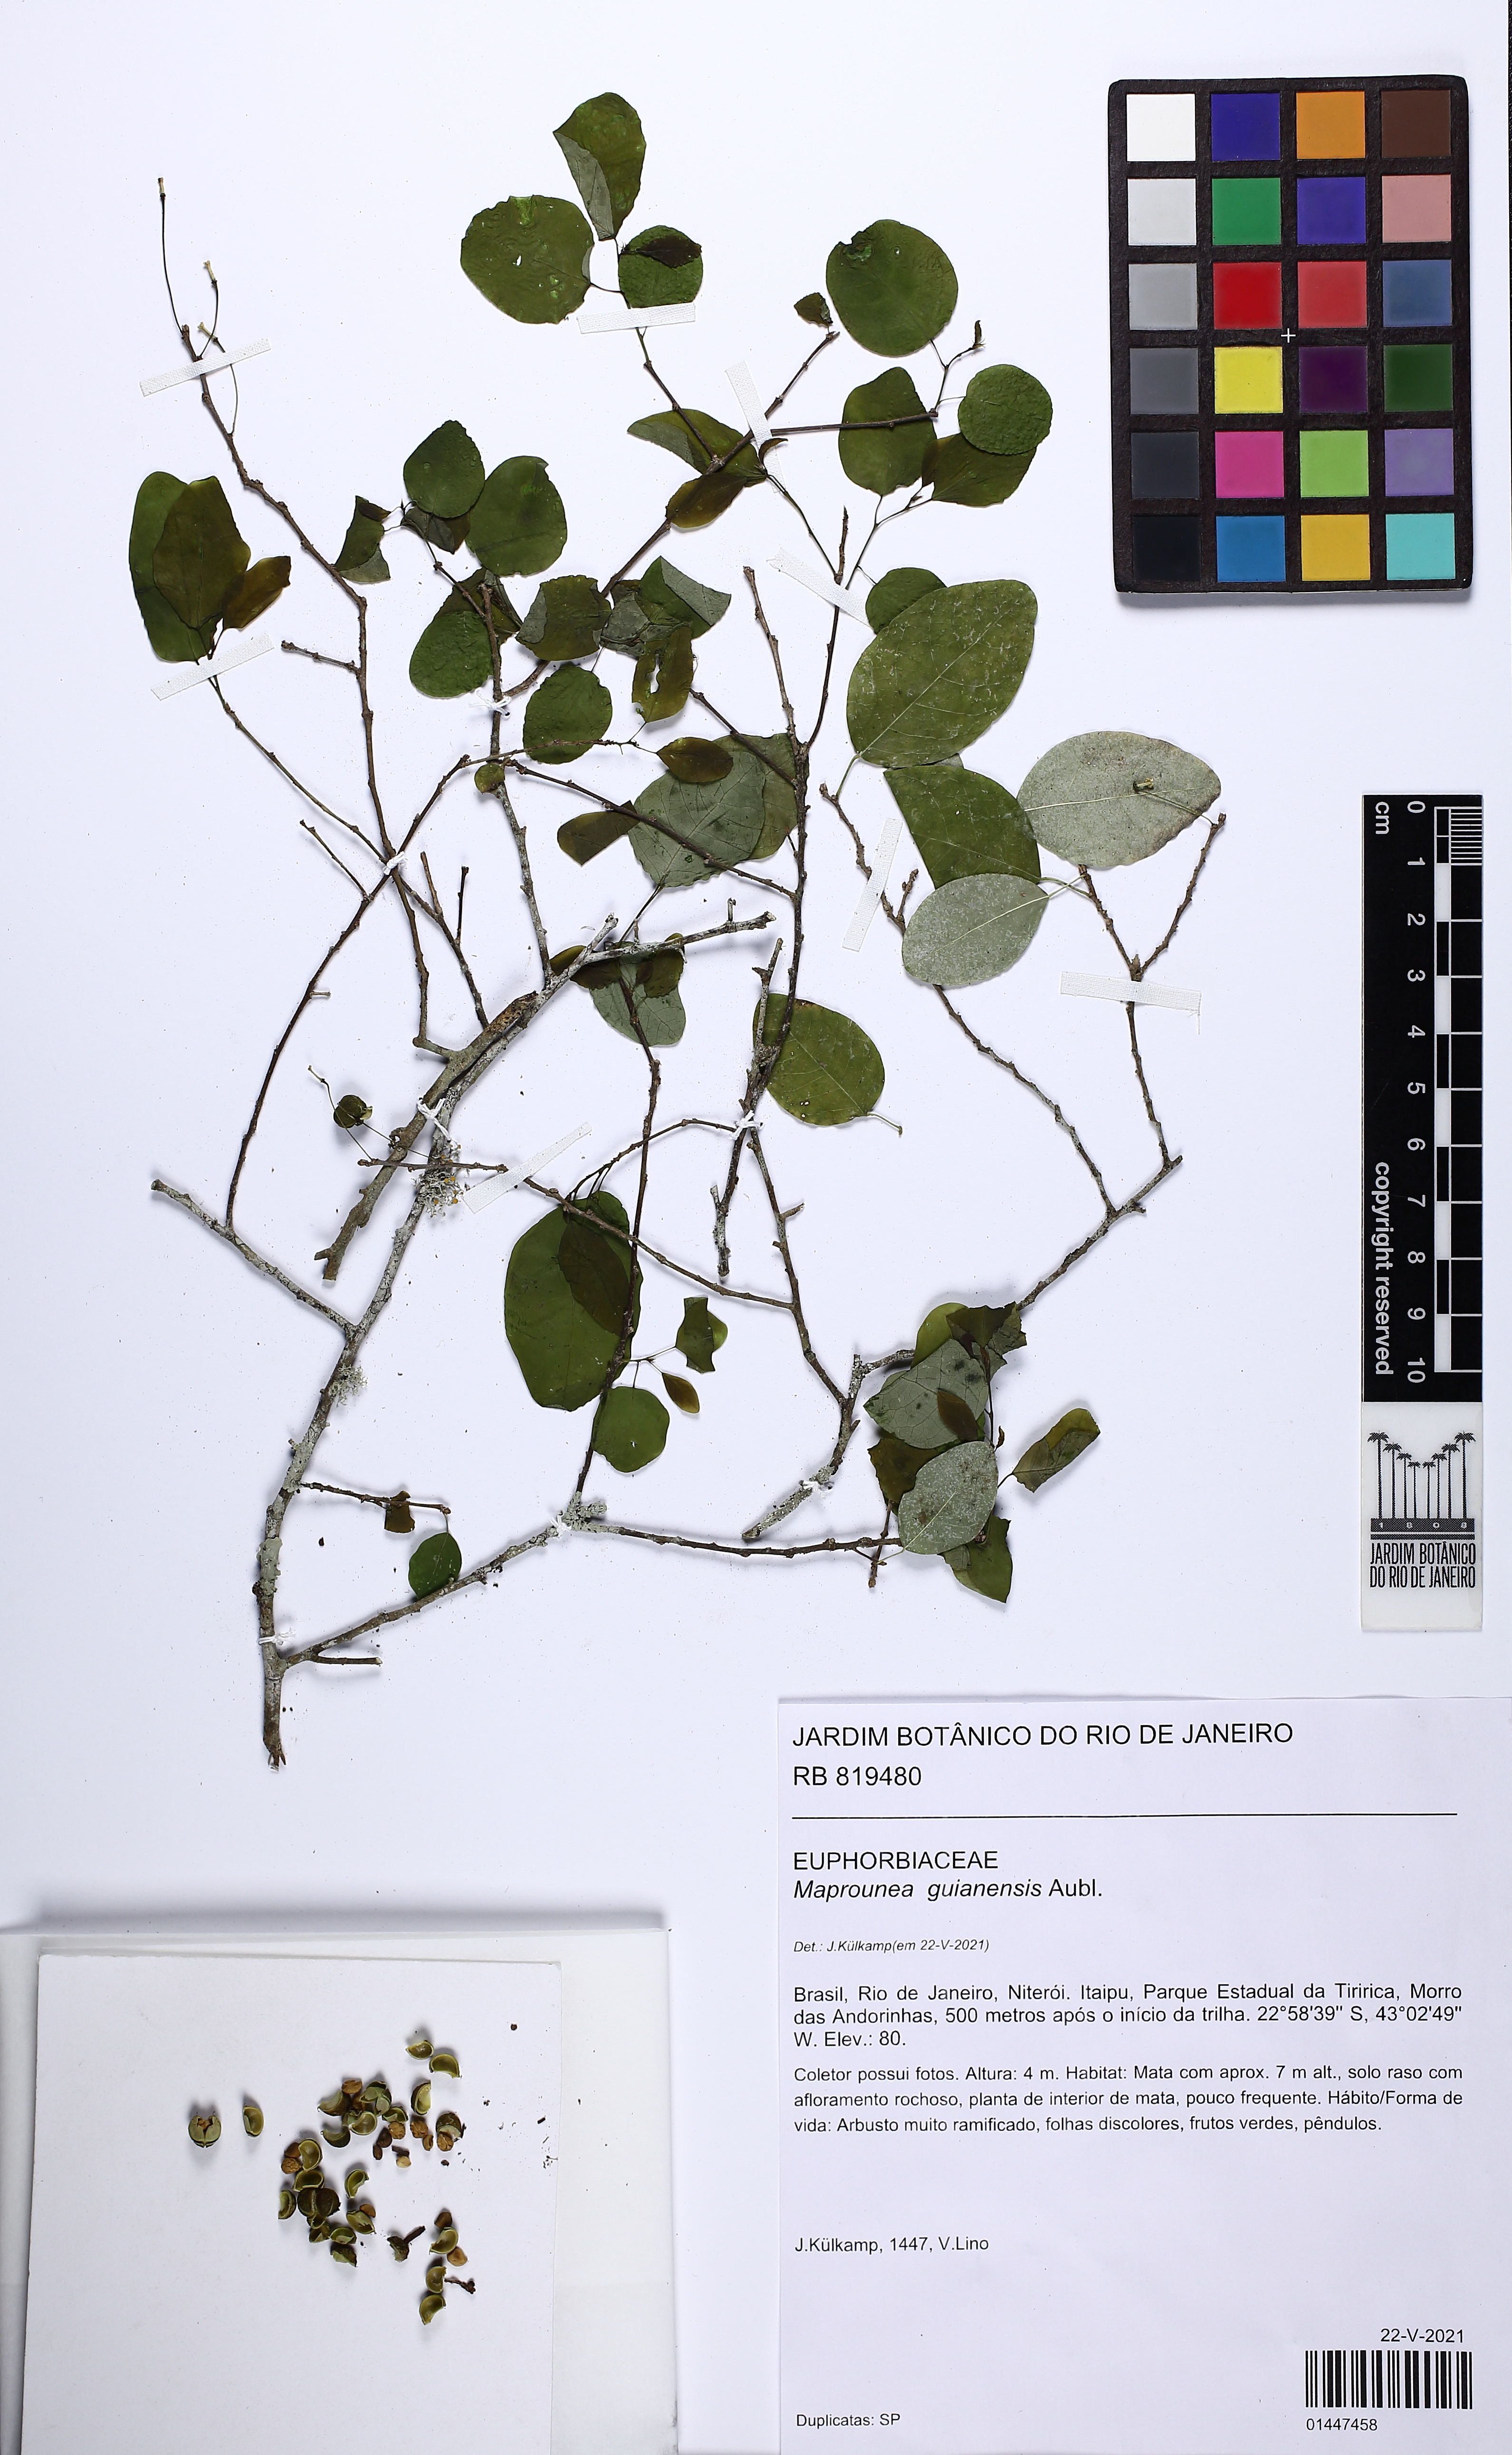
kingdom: Plantae
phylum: Tracheophyta
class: Magnoliopsida
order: Malpighiales
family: Euphorbiaceae
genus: Maprounea
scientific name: Maprounea guianensis
